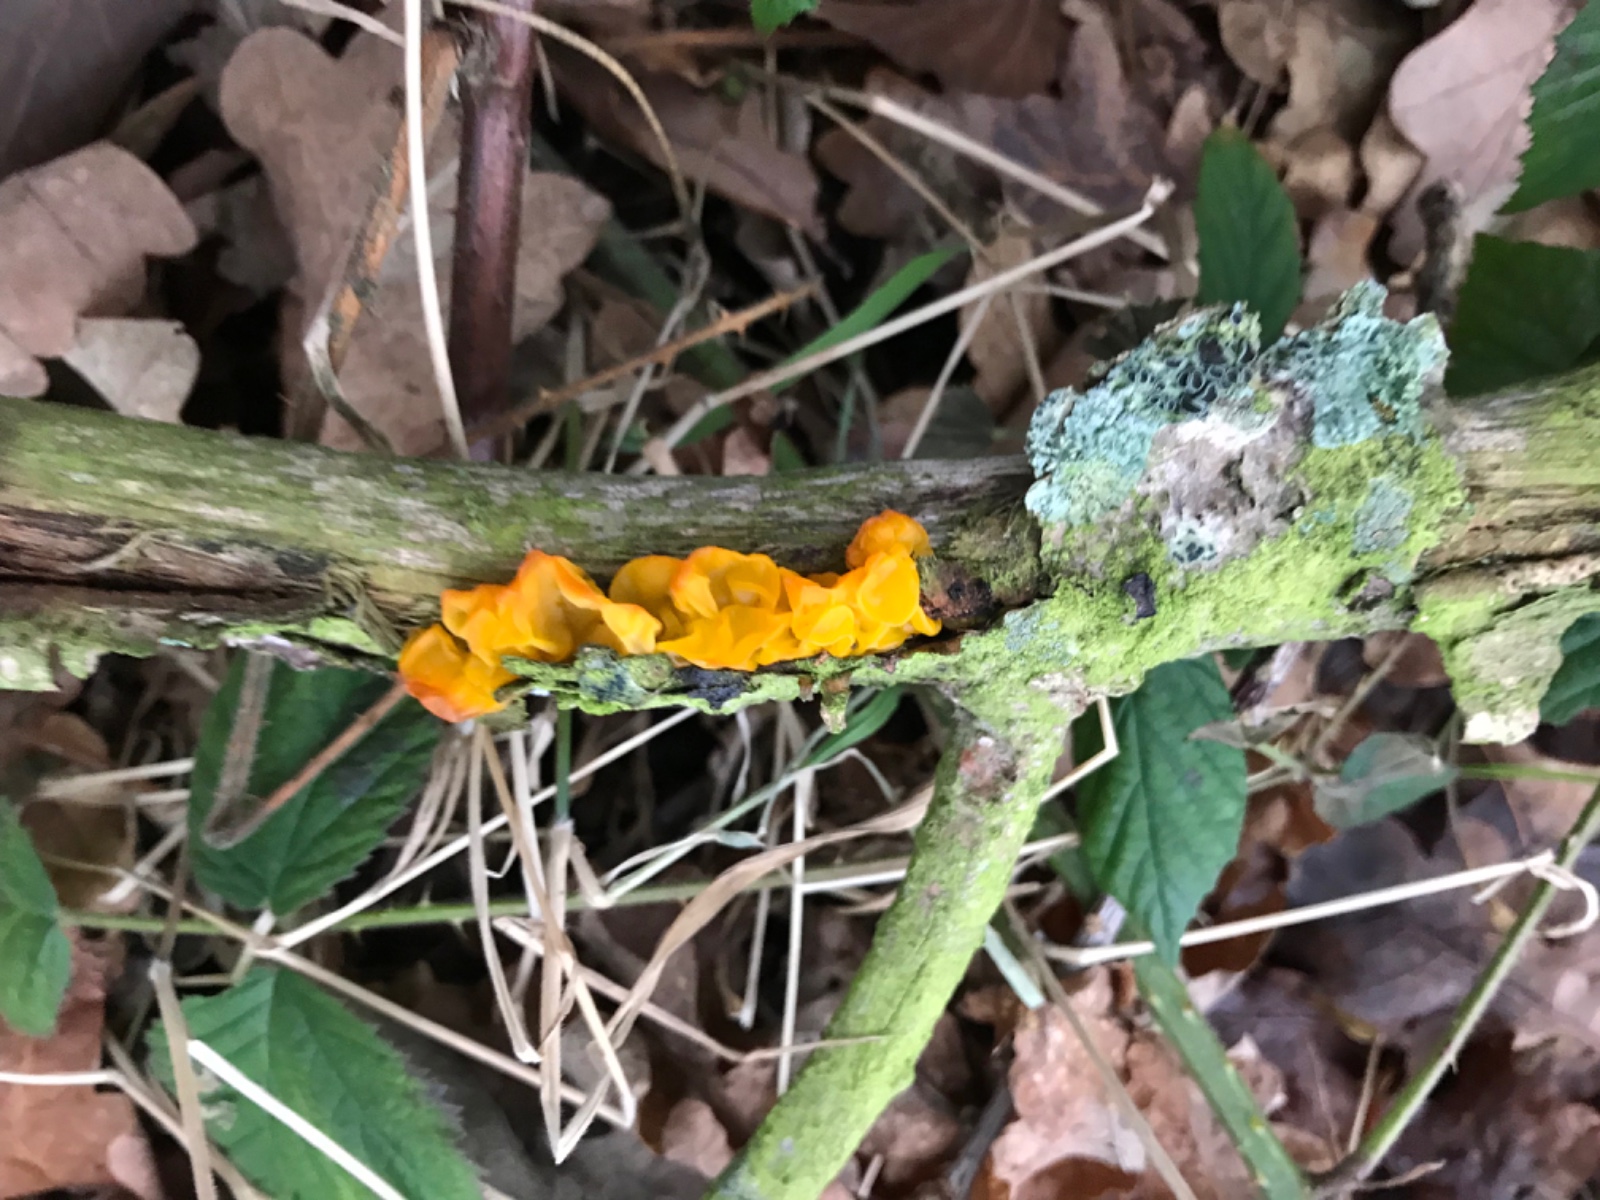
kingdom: Fungi
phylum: Basidiomycota
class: Tremellomycetes
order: Tremellales
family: Tremellaceae
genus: Tremella
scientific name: Tremella mesenterica
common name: gul bævresvamp
